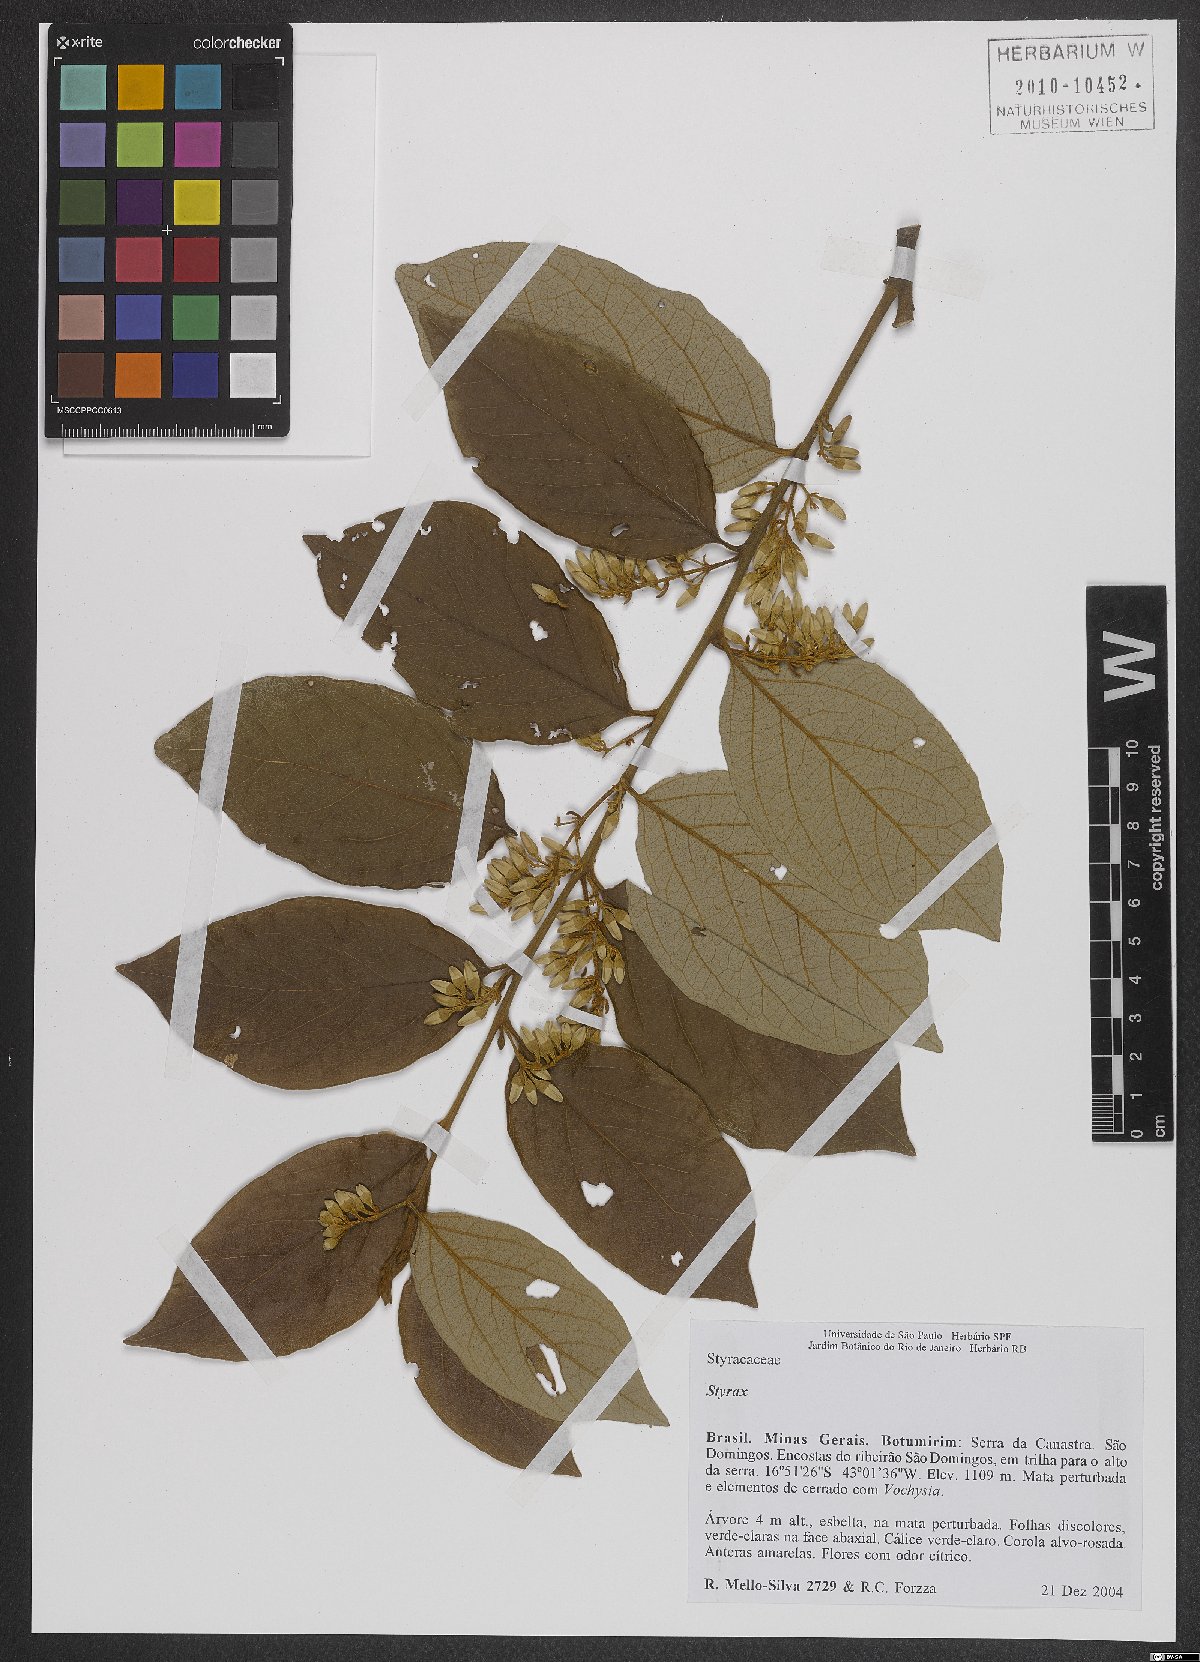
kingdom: Plantae
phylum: Tracheophyta
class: Magnoliopsida
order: Ericales
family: Styracaceae
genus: Styrax
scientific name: Styrax
